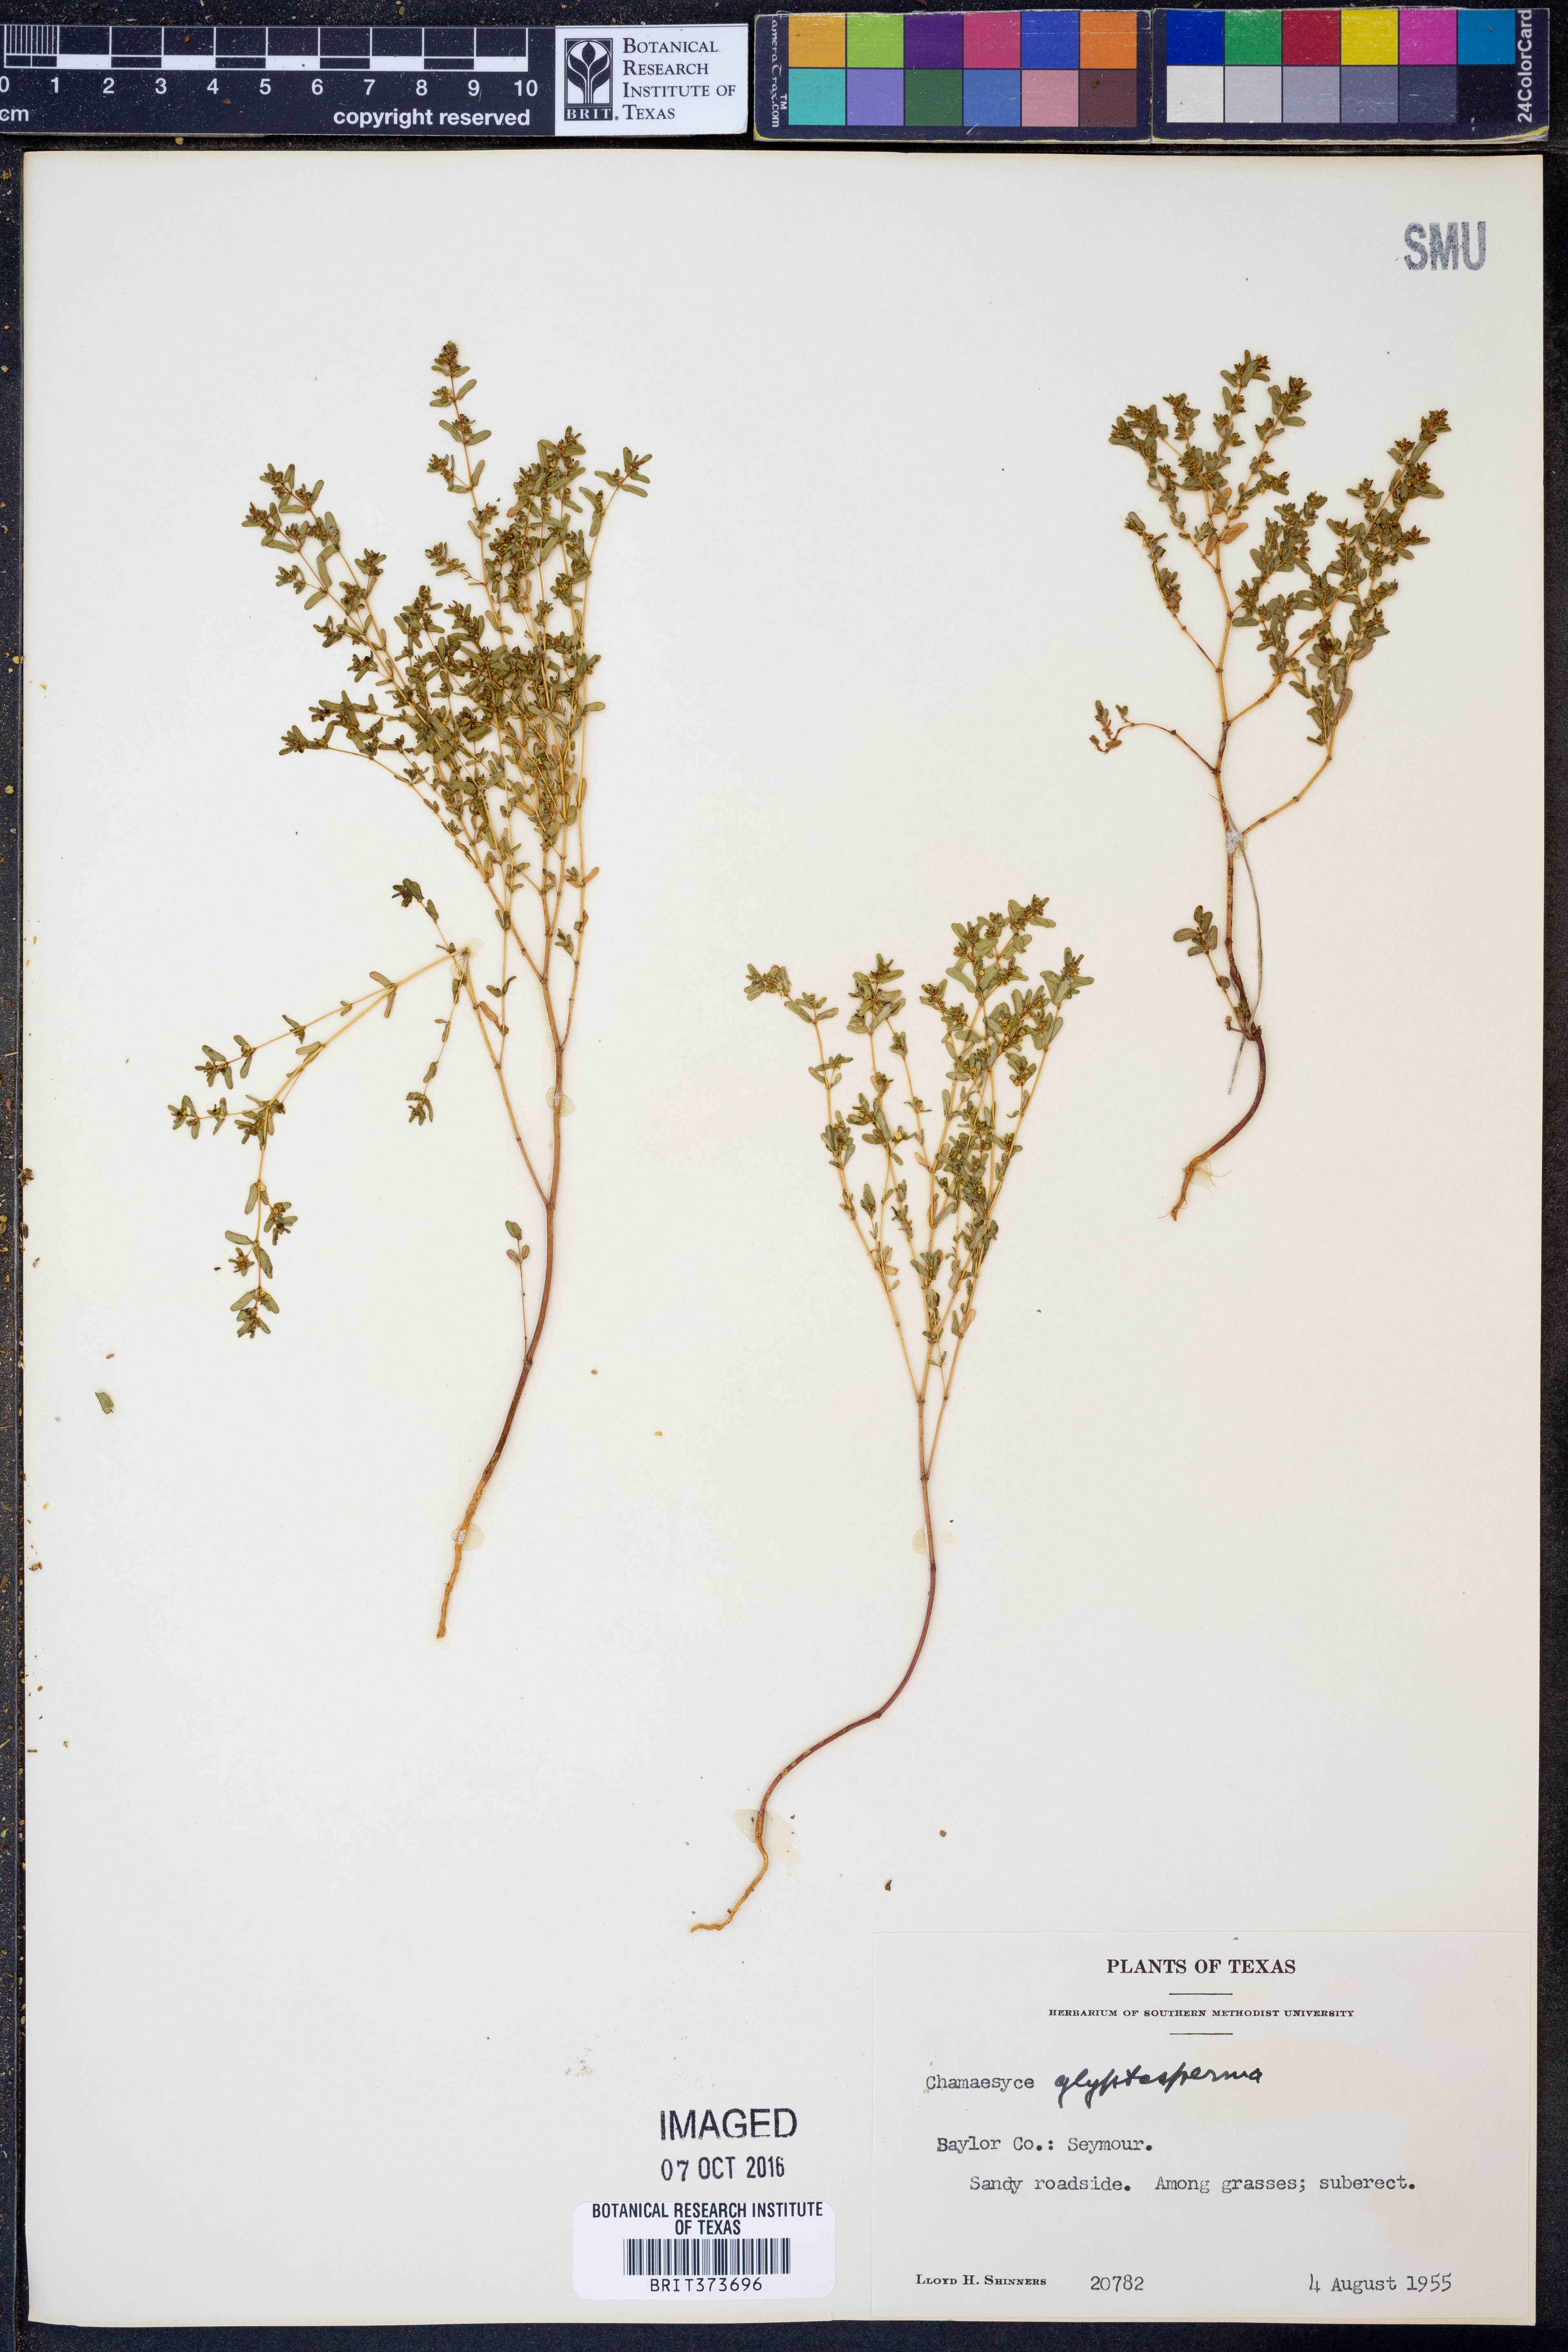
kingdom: Plantae
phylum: Tracheophyta
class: Magnoliopsida
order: Malpighiales
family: Euphorbiaceae
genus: Euphorbia
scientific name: Euphorbia glyptosperma
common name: Corrugate-seeded spurge
